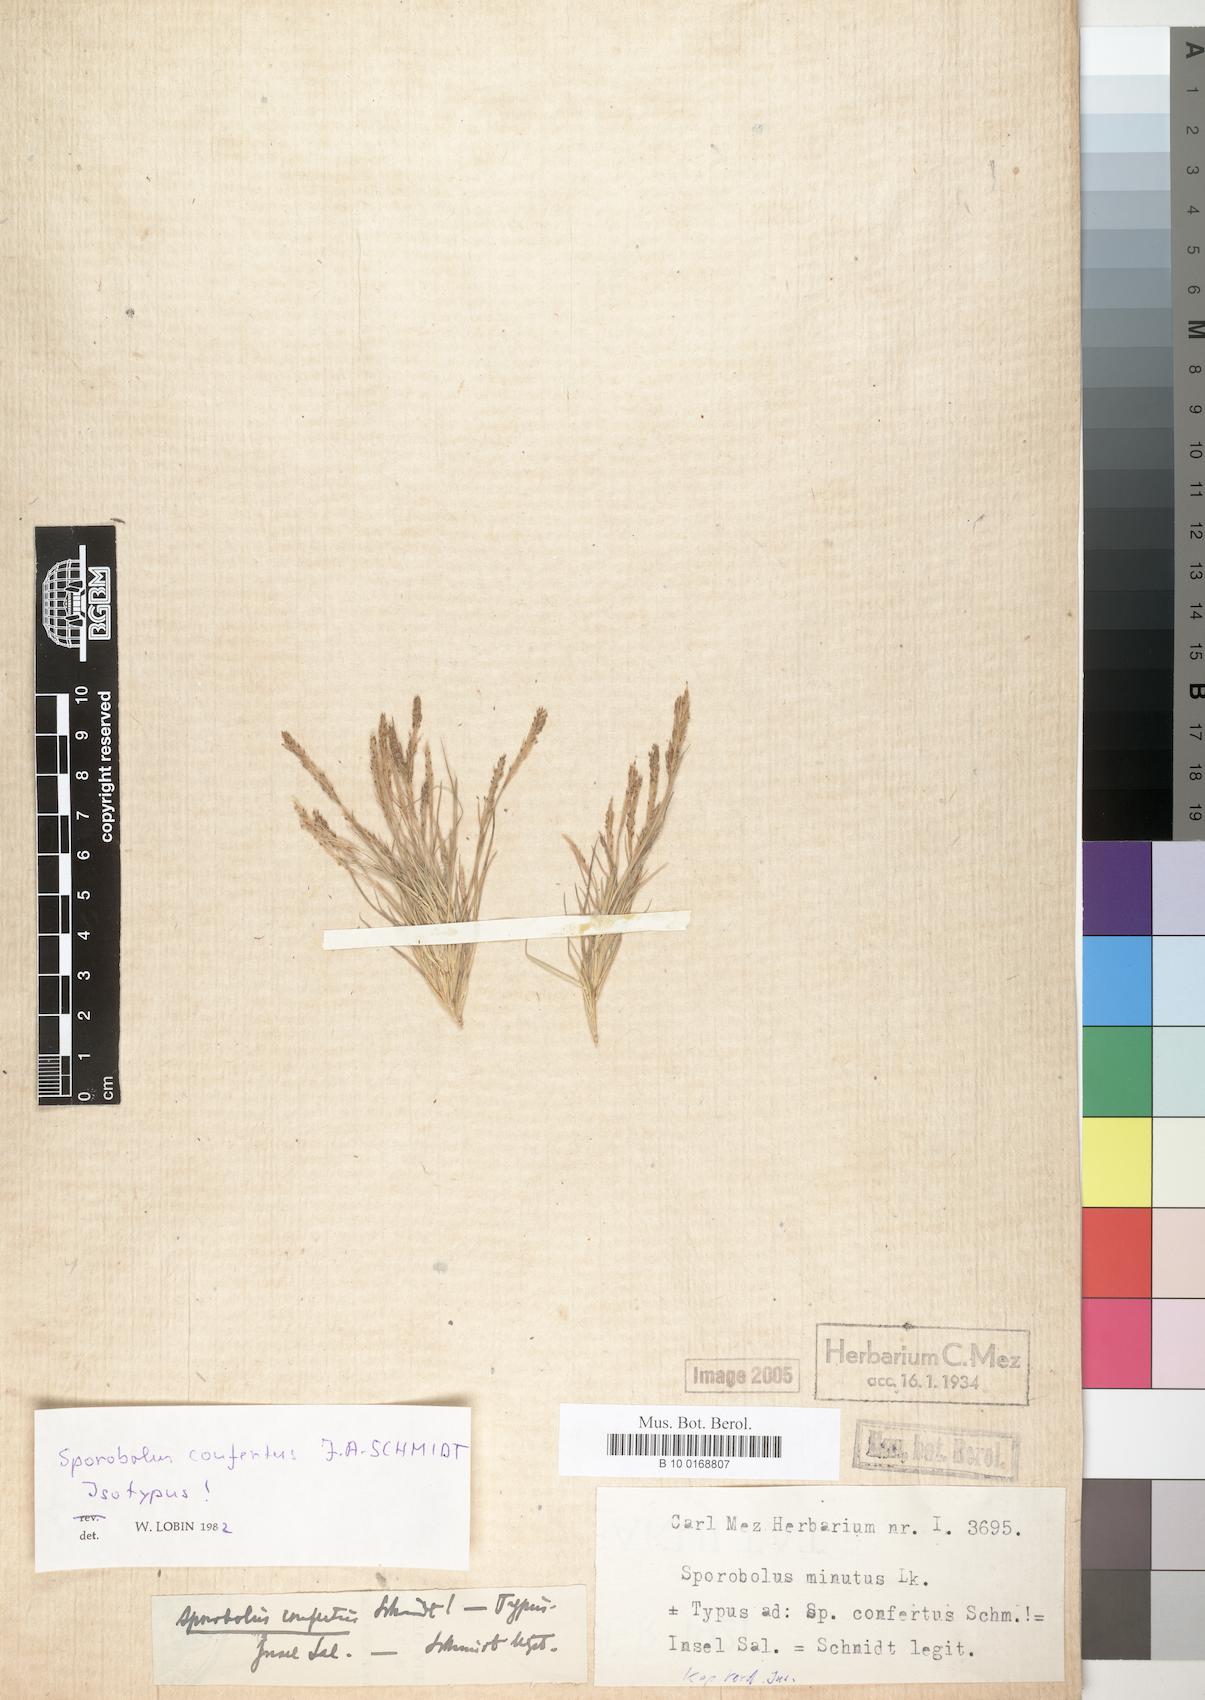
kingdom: Plantae
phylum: Tracheophyta
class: Liliopsida
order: Poales
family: Poaceae
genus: Sporobolus
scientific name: Sporobolus virginicus
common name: Beach dropseed
